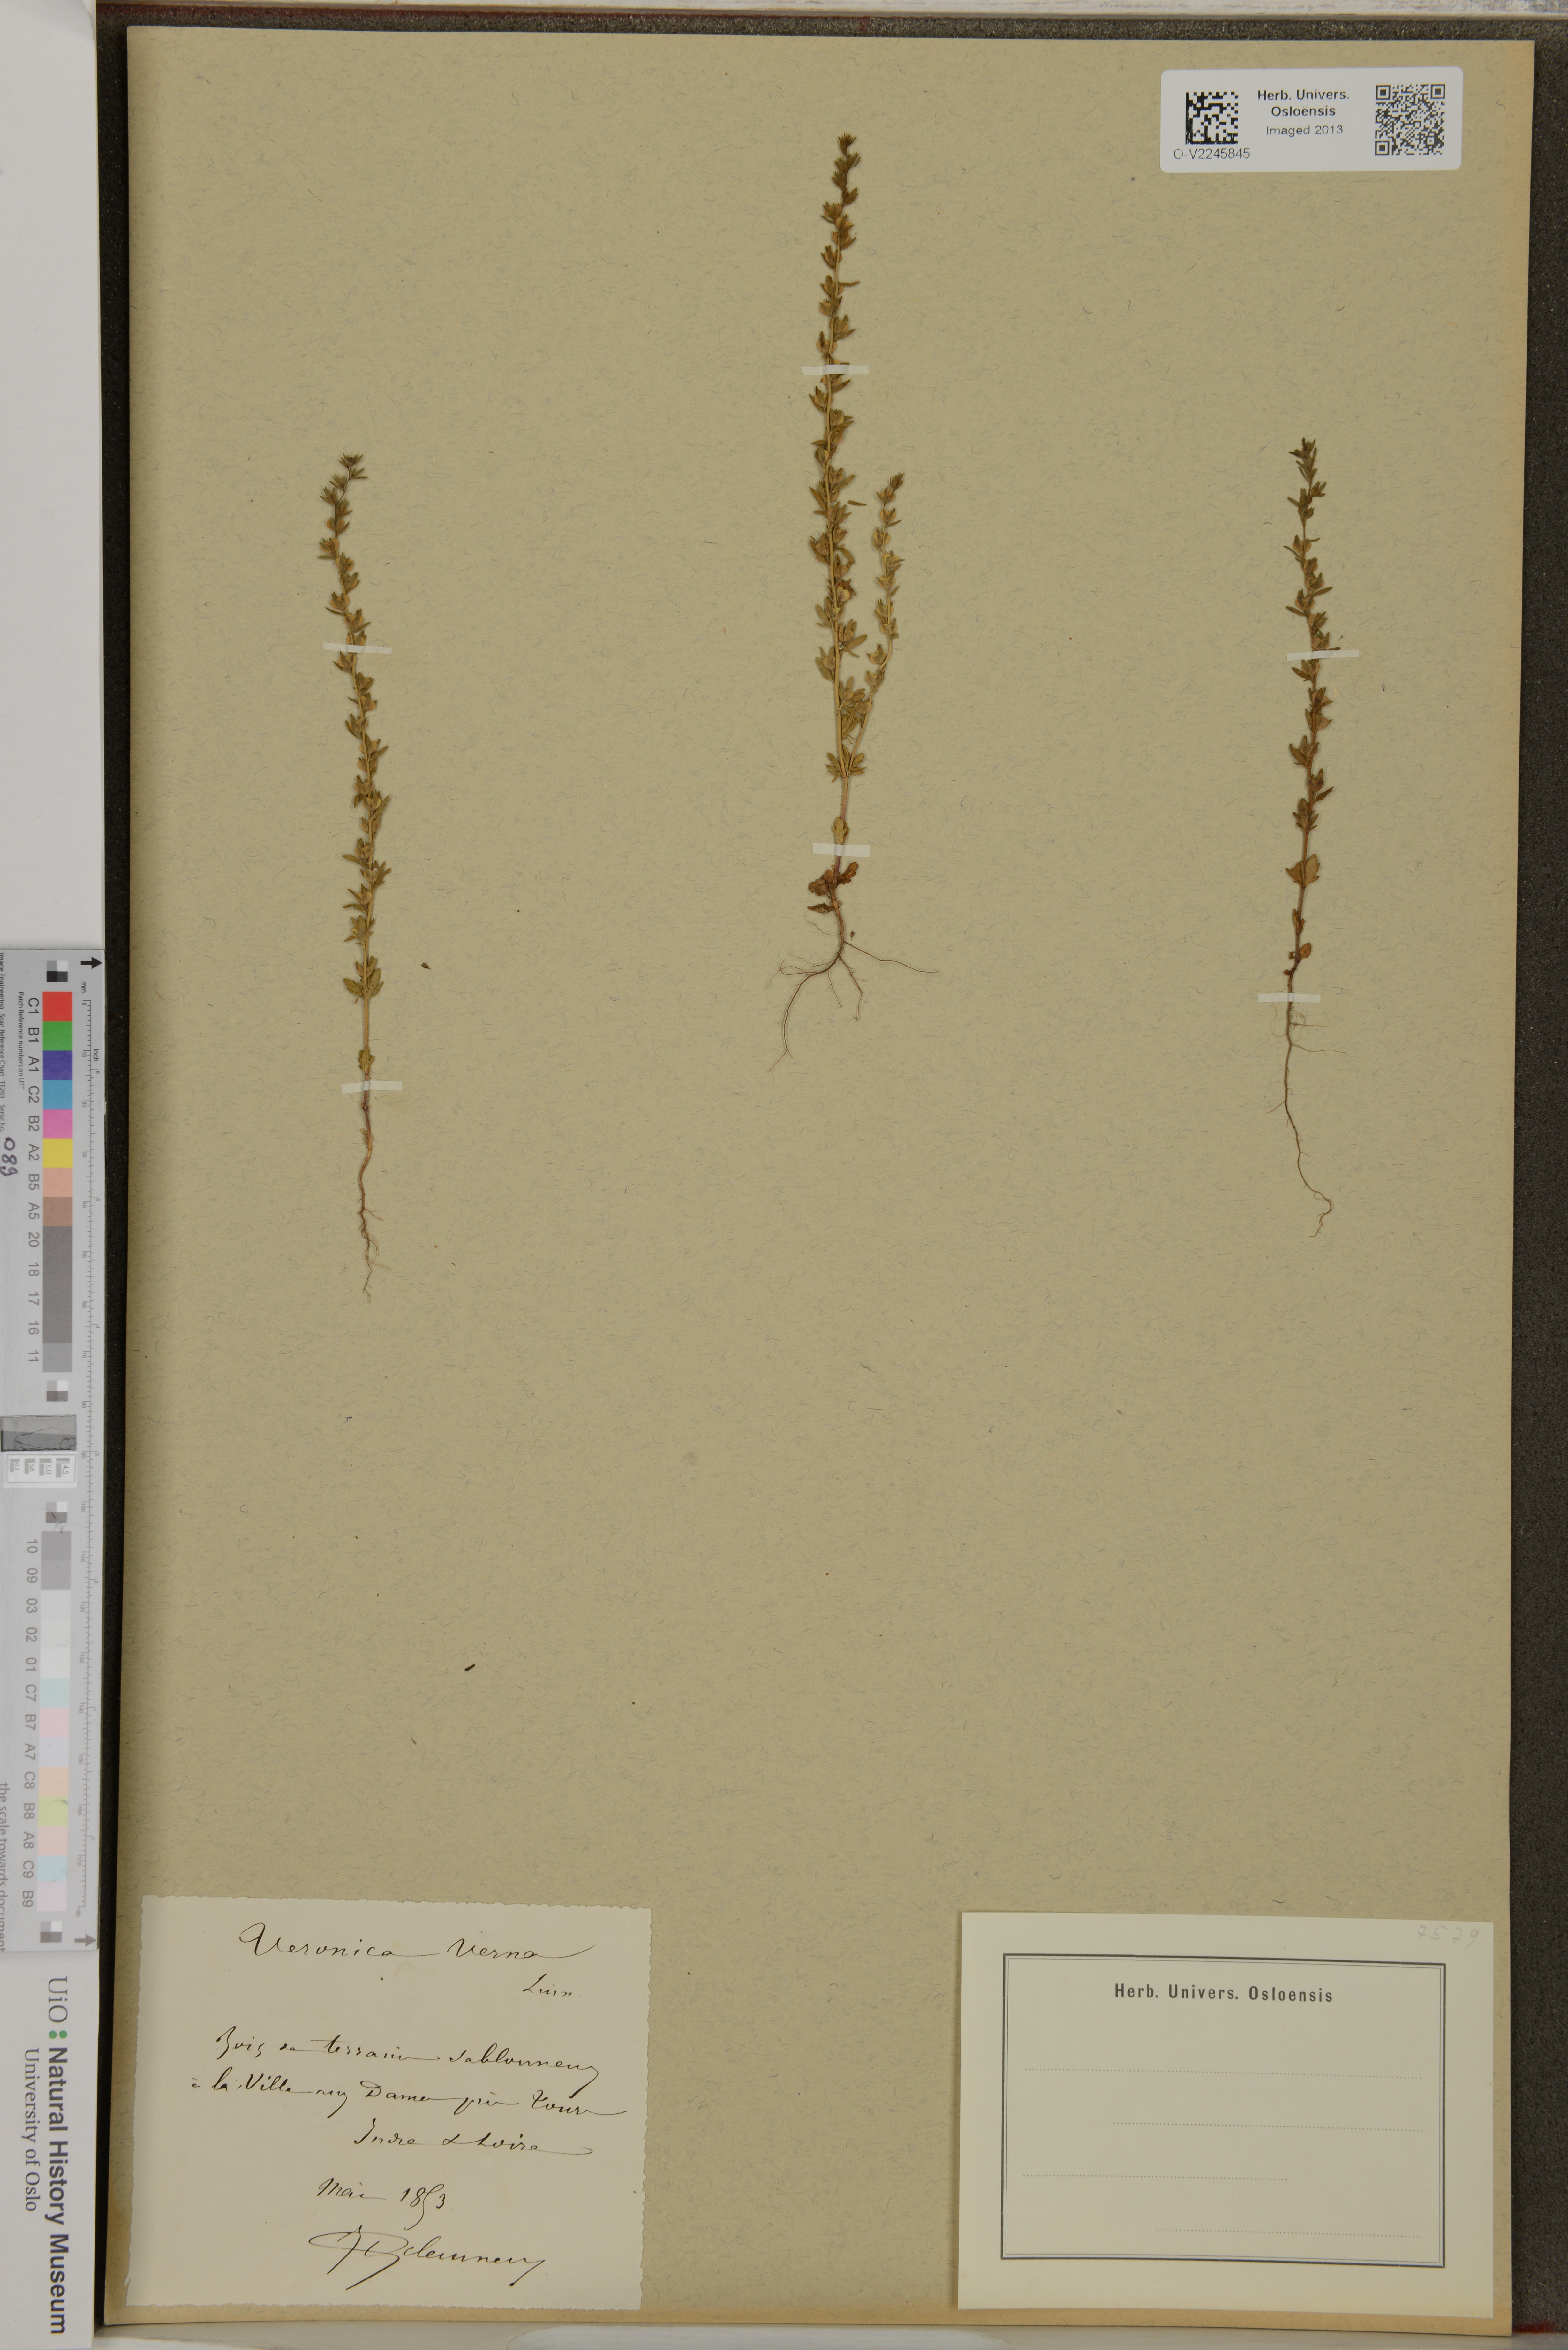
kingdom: Plantae
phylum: Tracheophyta
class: Magnoliopsida
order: Lamiales
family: Plantaginaceae
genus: Veronica
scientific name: Veronica verna
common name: Spring speedwell
